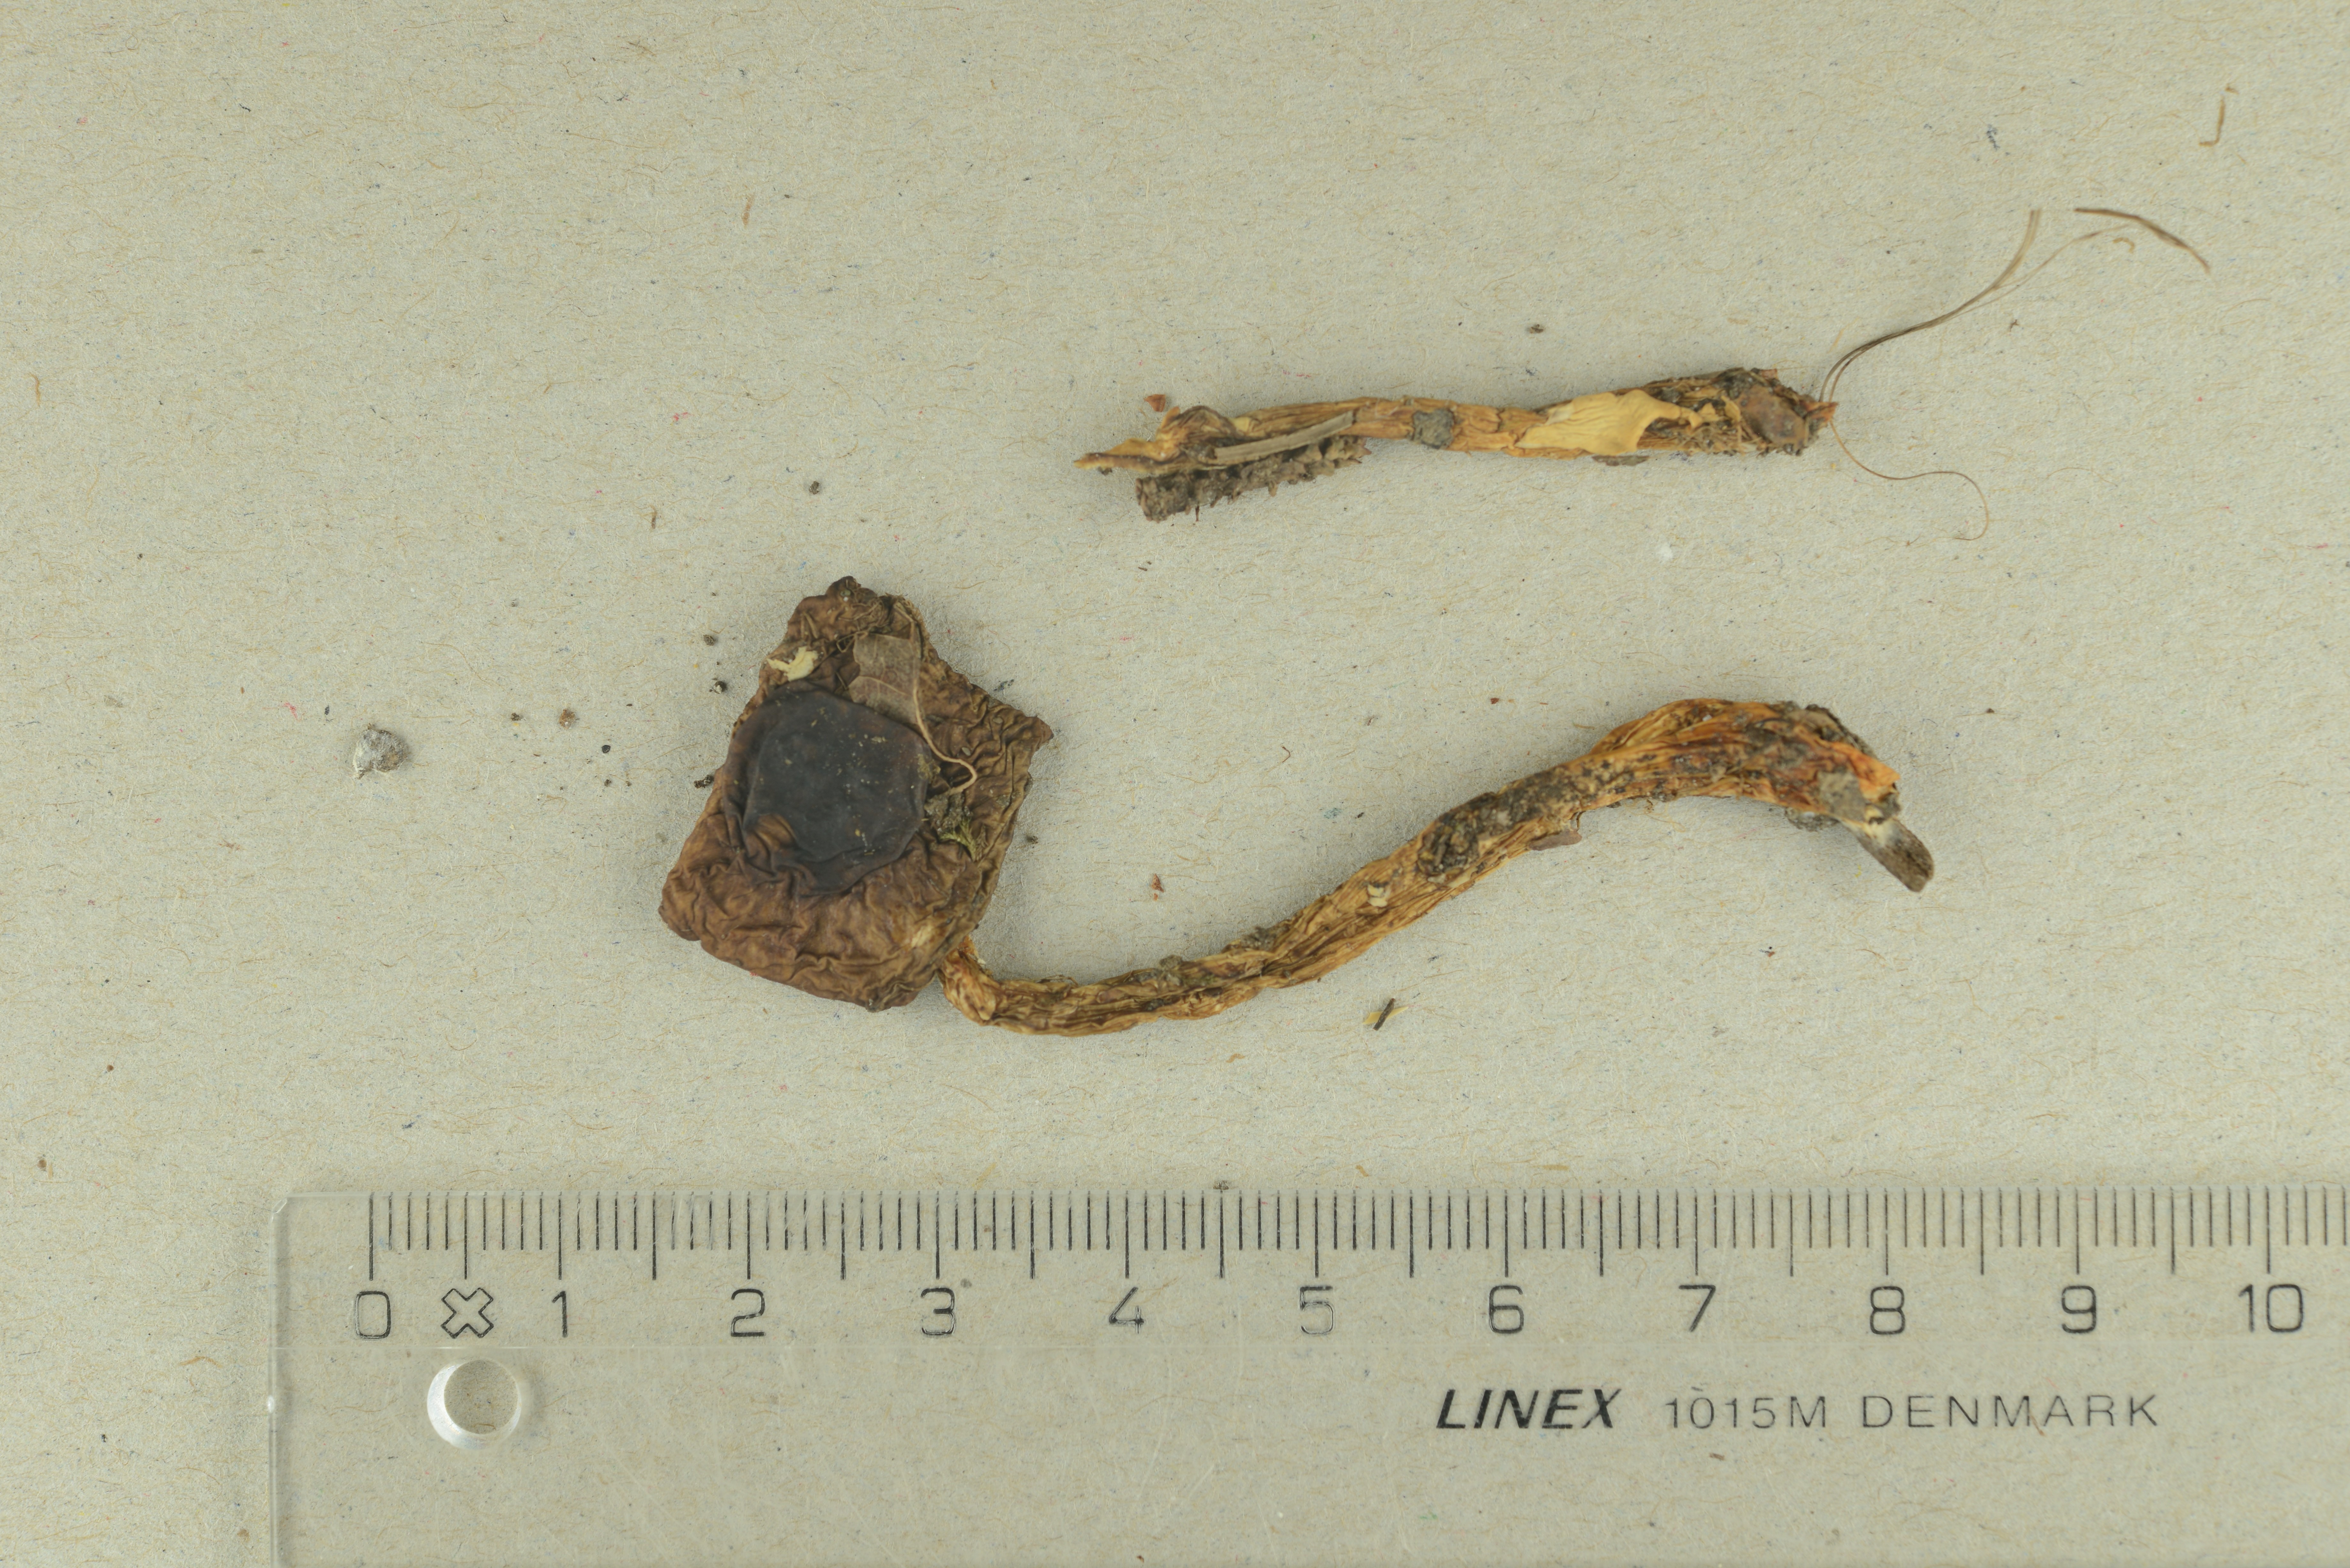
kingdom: Fungi
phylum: Basidiomycota
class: Agaricomycetes
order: Agaricales
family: Hygrophoraceae
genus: Hygrophorus
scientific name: Hygrophorus glutinifer
